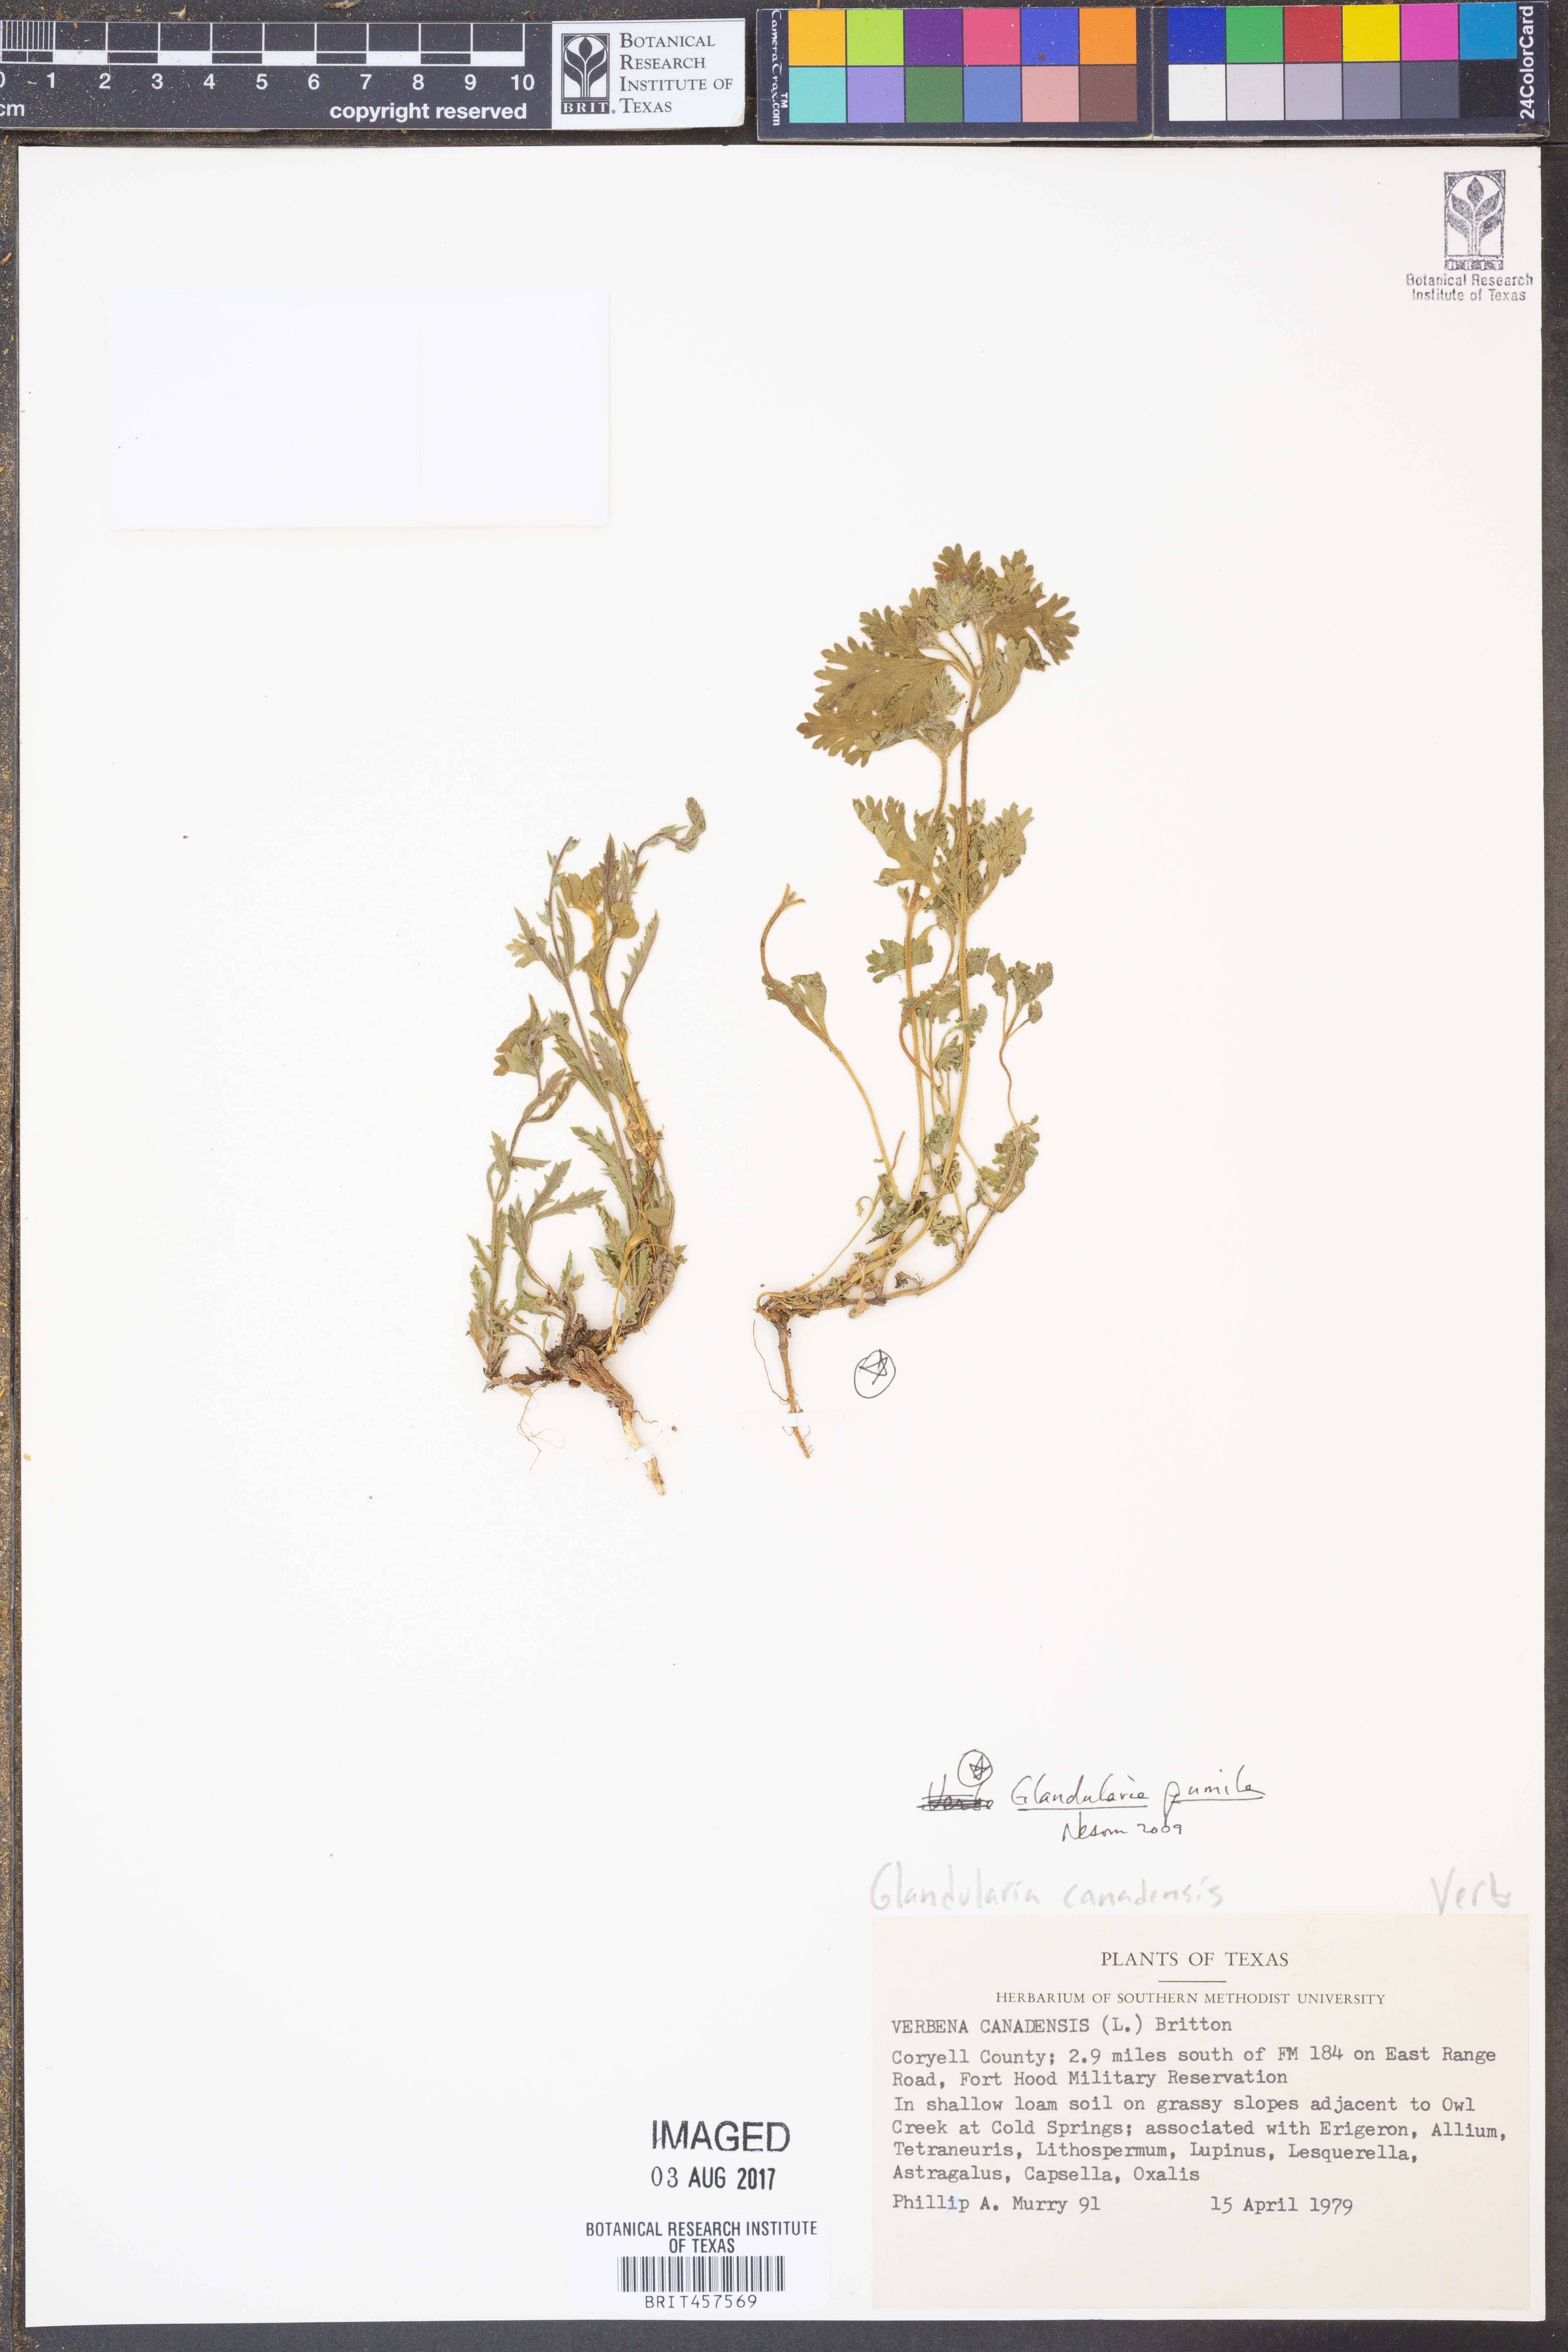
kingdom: Plantae
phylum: Tracheophyta
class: Magnoliopsida
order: Lamiales
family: Verbenaceae
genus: Verbena
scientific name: Verbena pumila
